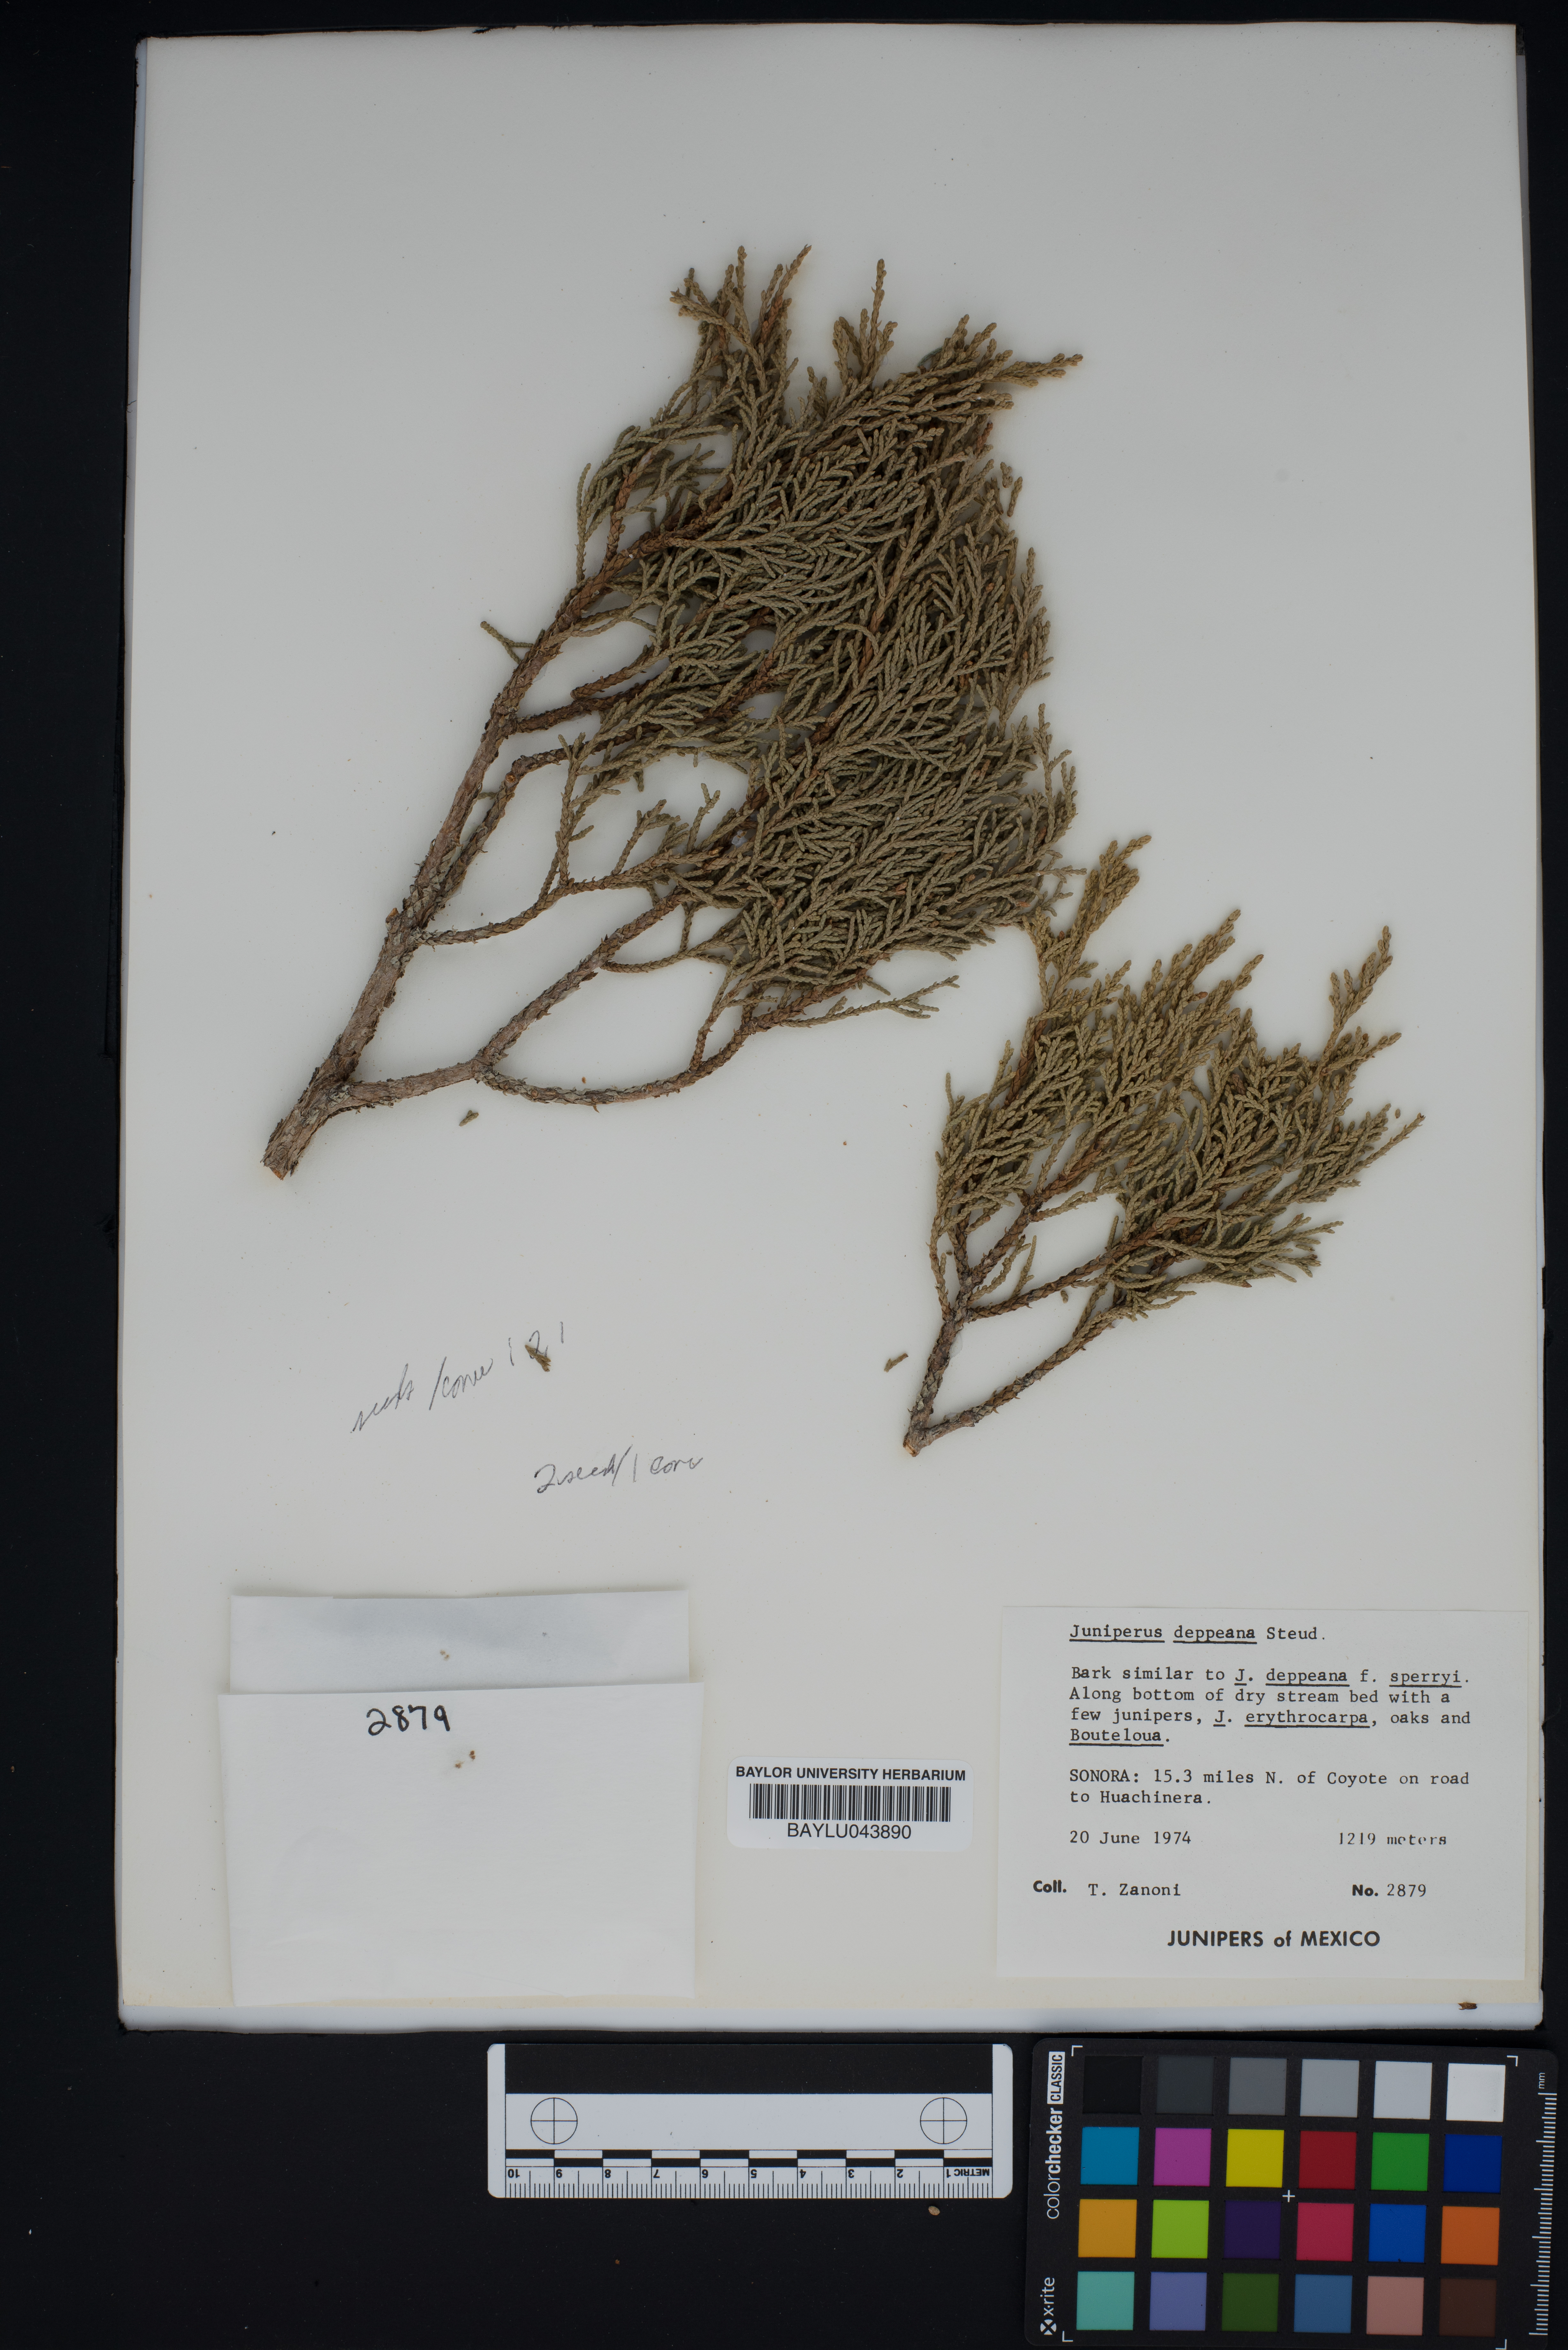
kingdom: Plantae
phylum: Tracheophyta
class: Pinopsida
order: Pinales
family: Cupressaceae
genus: Juniperus
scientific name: Juniperus deppeana
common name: Alligator juniper
